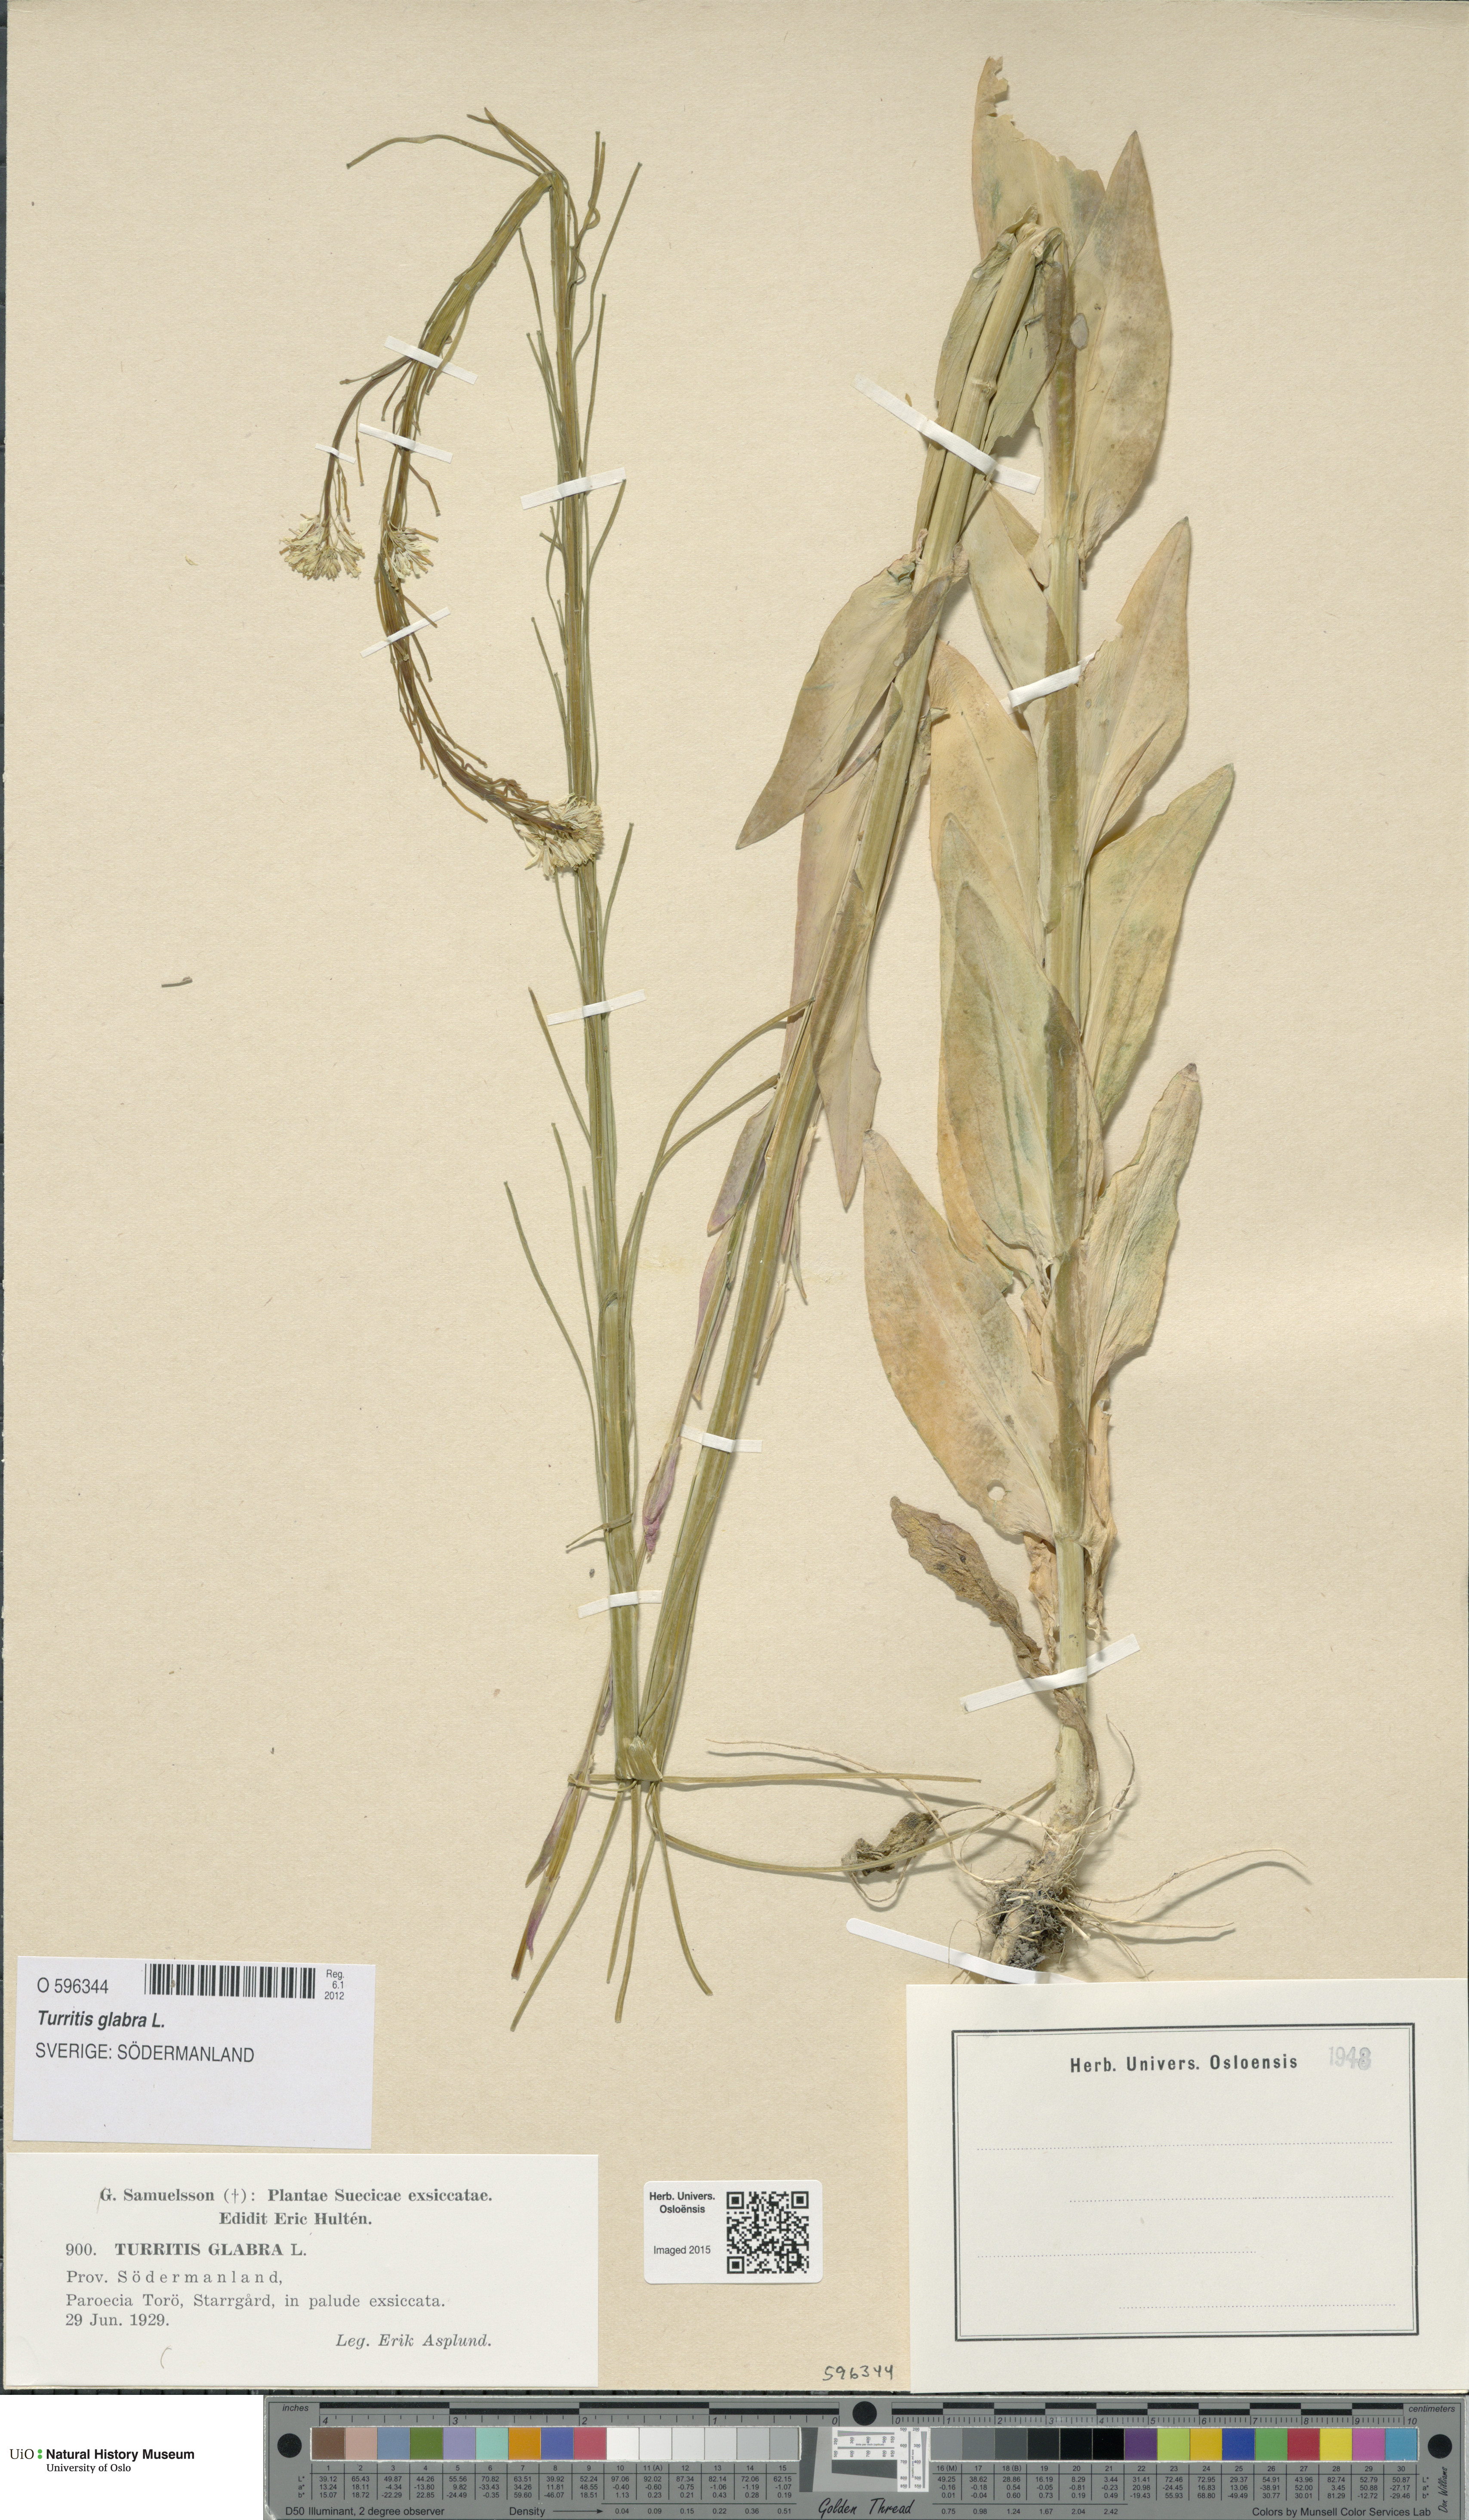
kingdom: Plantae
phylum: Tracheophyta
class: Magnoliopsida
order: Brassicales
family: Brassicaceae
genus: Turritis
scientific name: Turritis glabra
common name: Tower rockcress
